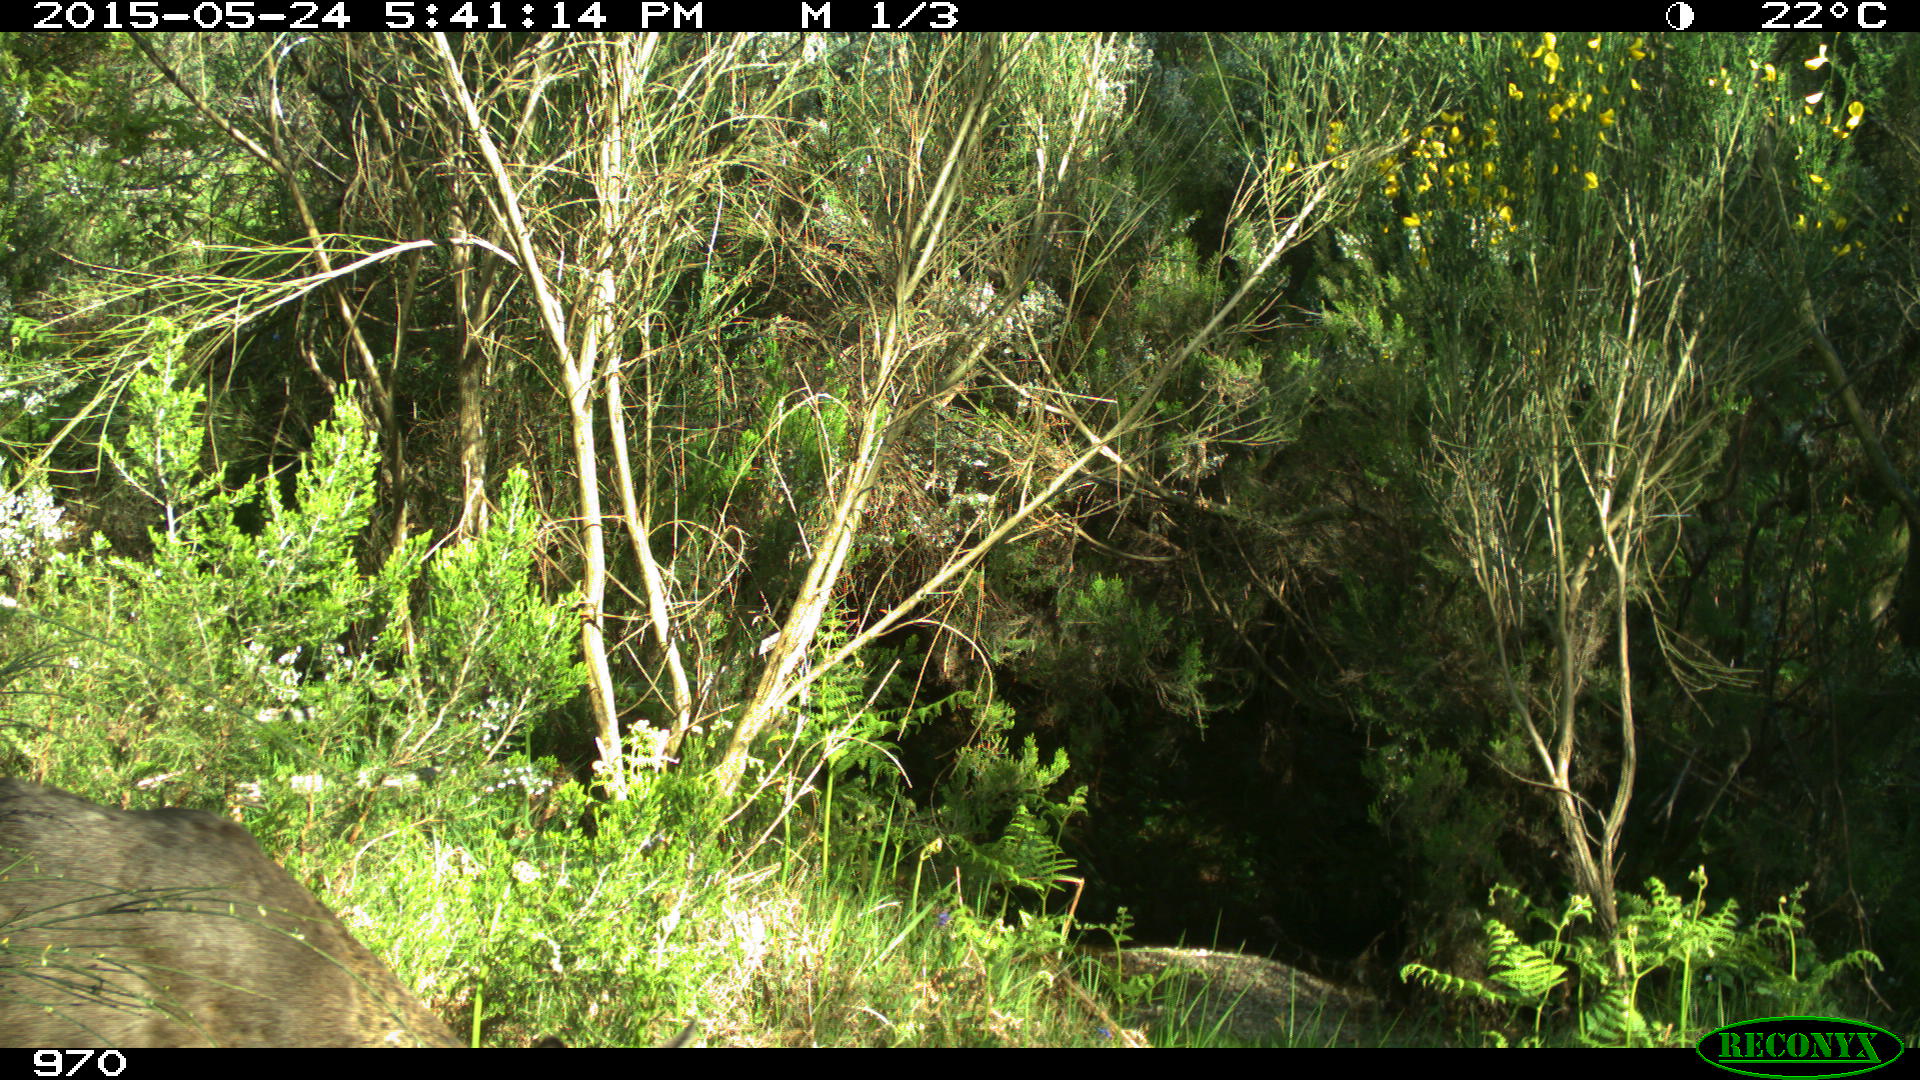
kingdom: Animalia
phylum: Chordata
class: Mammalia
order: Artiodactyla
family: Cervidae
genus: Capreolus
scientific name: Capreolus capreolus
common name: Western roe deer
